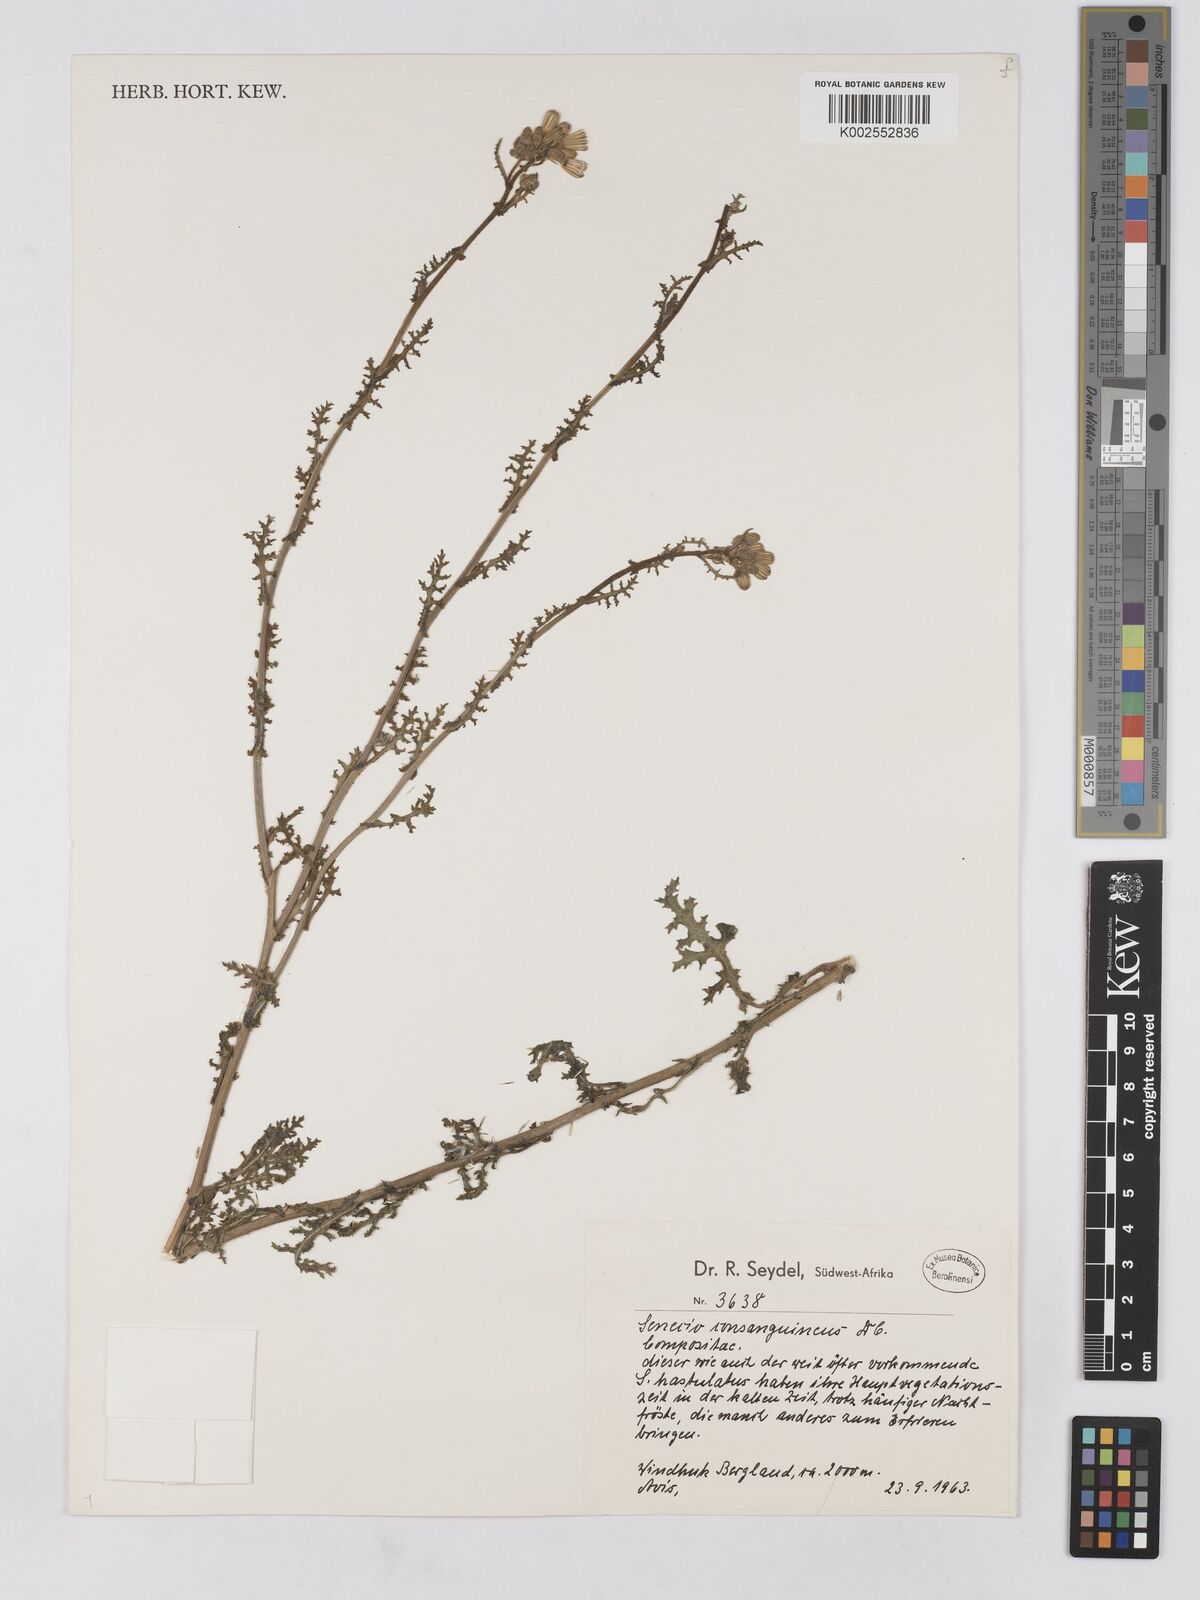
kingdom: Plantae
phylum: Tracheophyta
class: Magnoliopsida
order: Asterales
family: Asteraceae
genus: Senecio
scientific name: Senecio consanguineus
